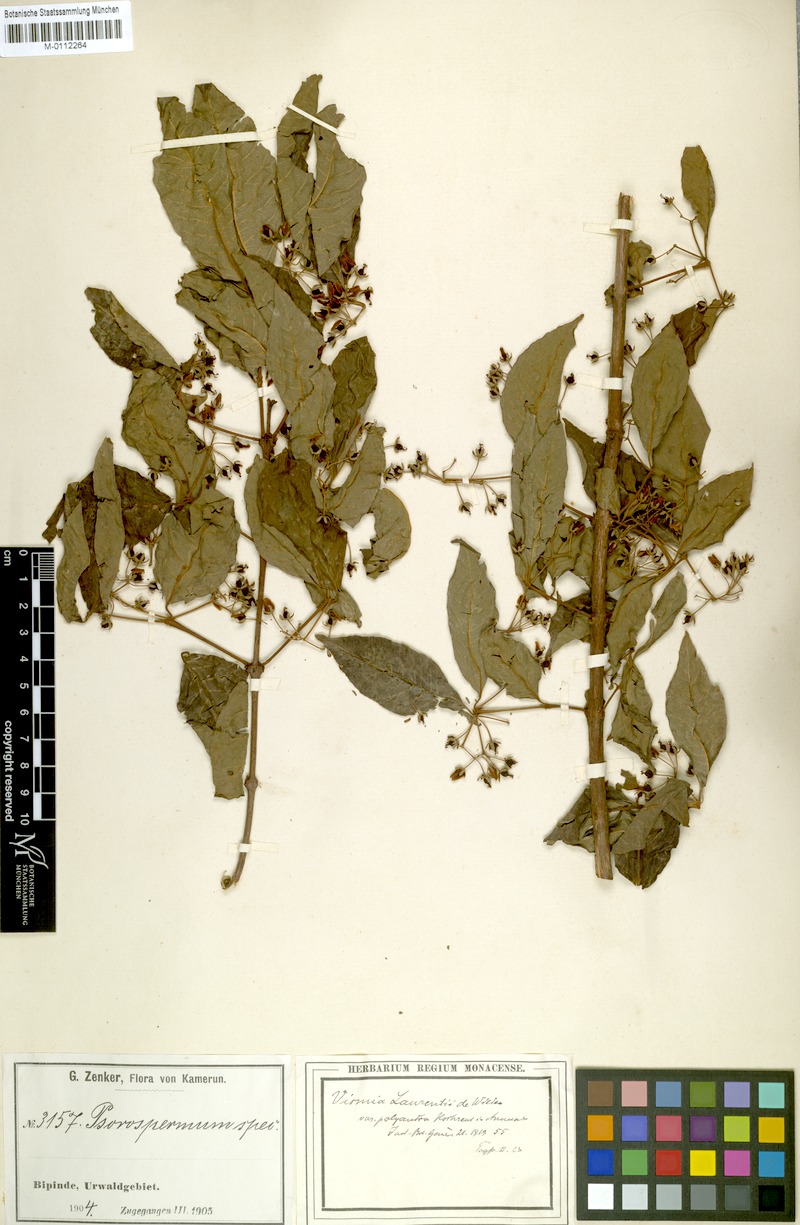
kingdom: Plantae
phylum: Tracheophyta
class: Magnoliopsida
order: Malpighiales
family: Hypericaceae
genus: Psorospermum
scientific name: Psorospermum laurentii
